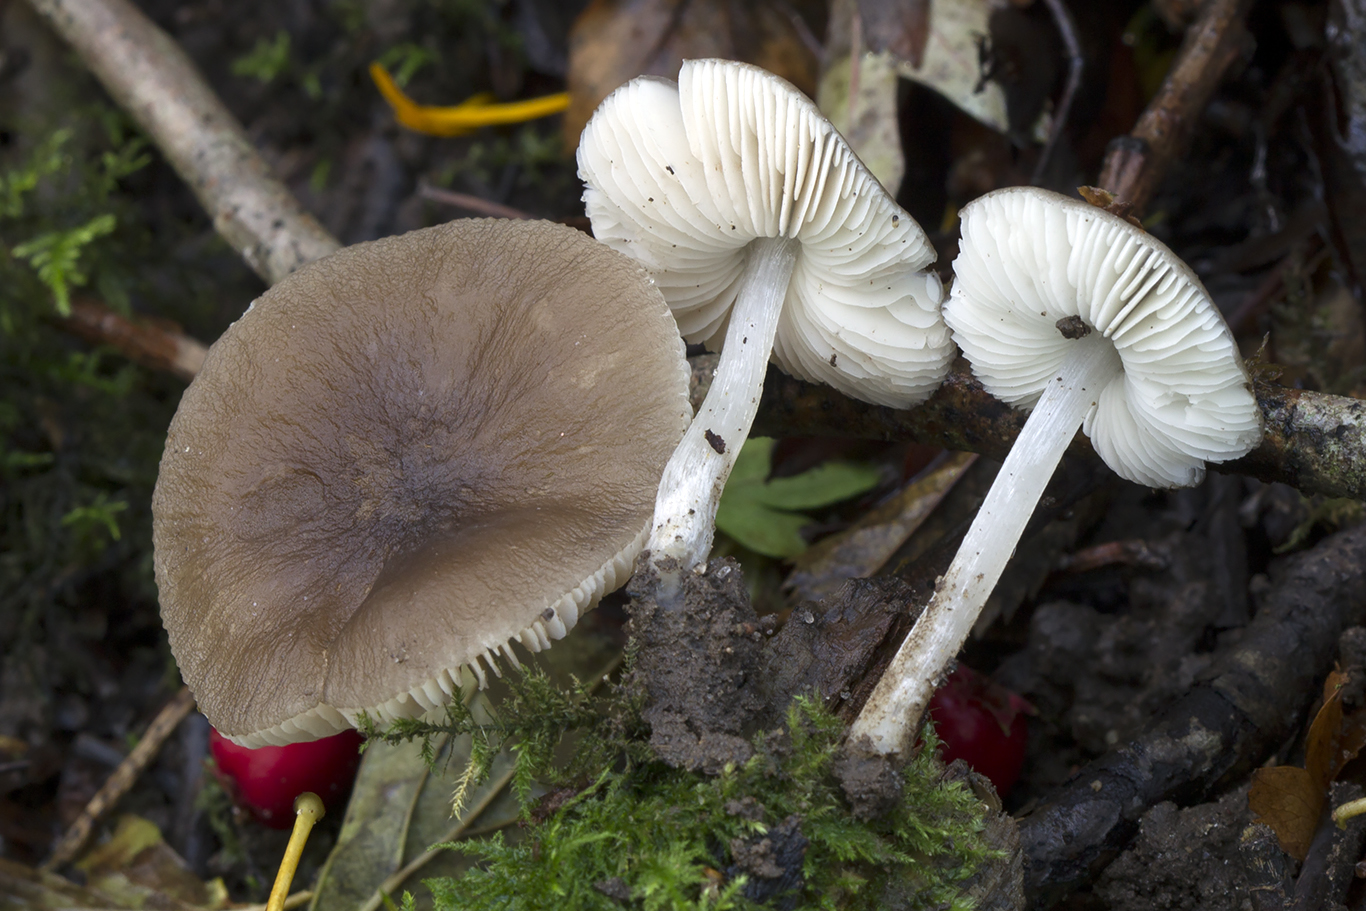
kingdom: Fungi
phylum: Basidiomycota
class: Agaricomycetes
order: Agaricales
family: Pluteaceae
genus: Pluteus
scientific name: Pluteus
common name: pudret skærmhat
